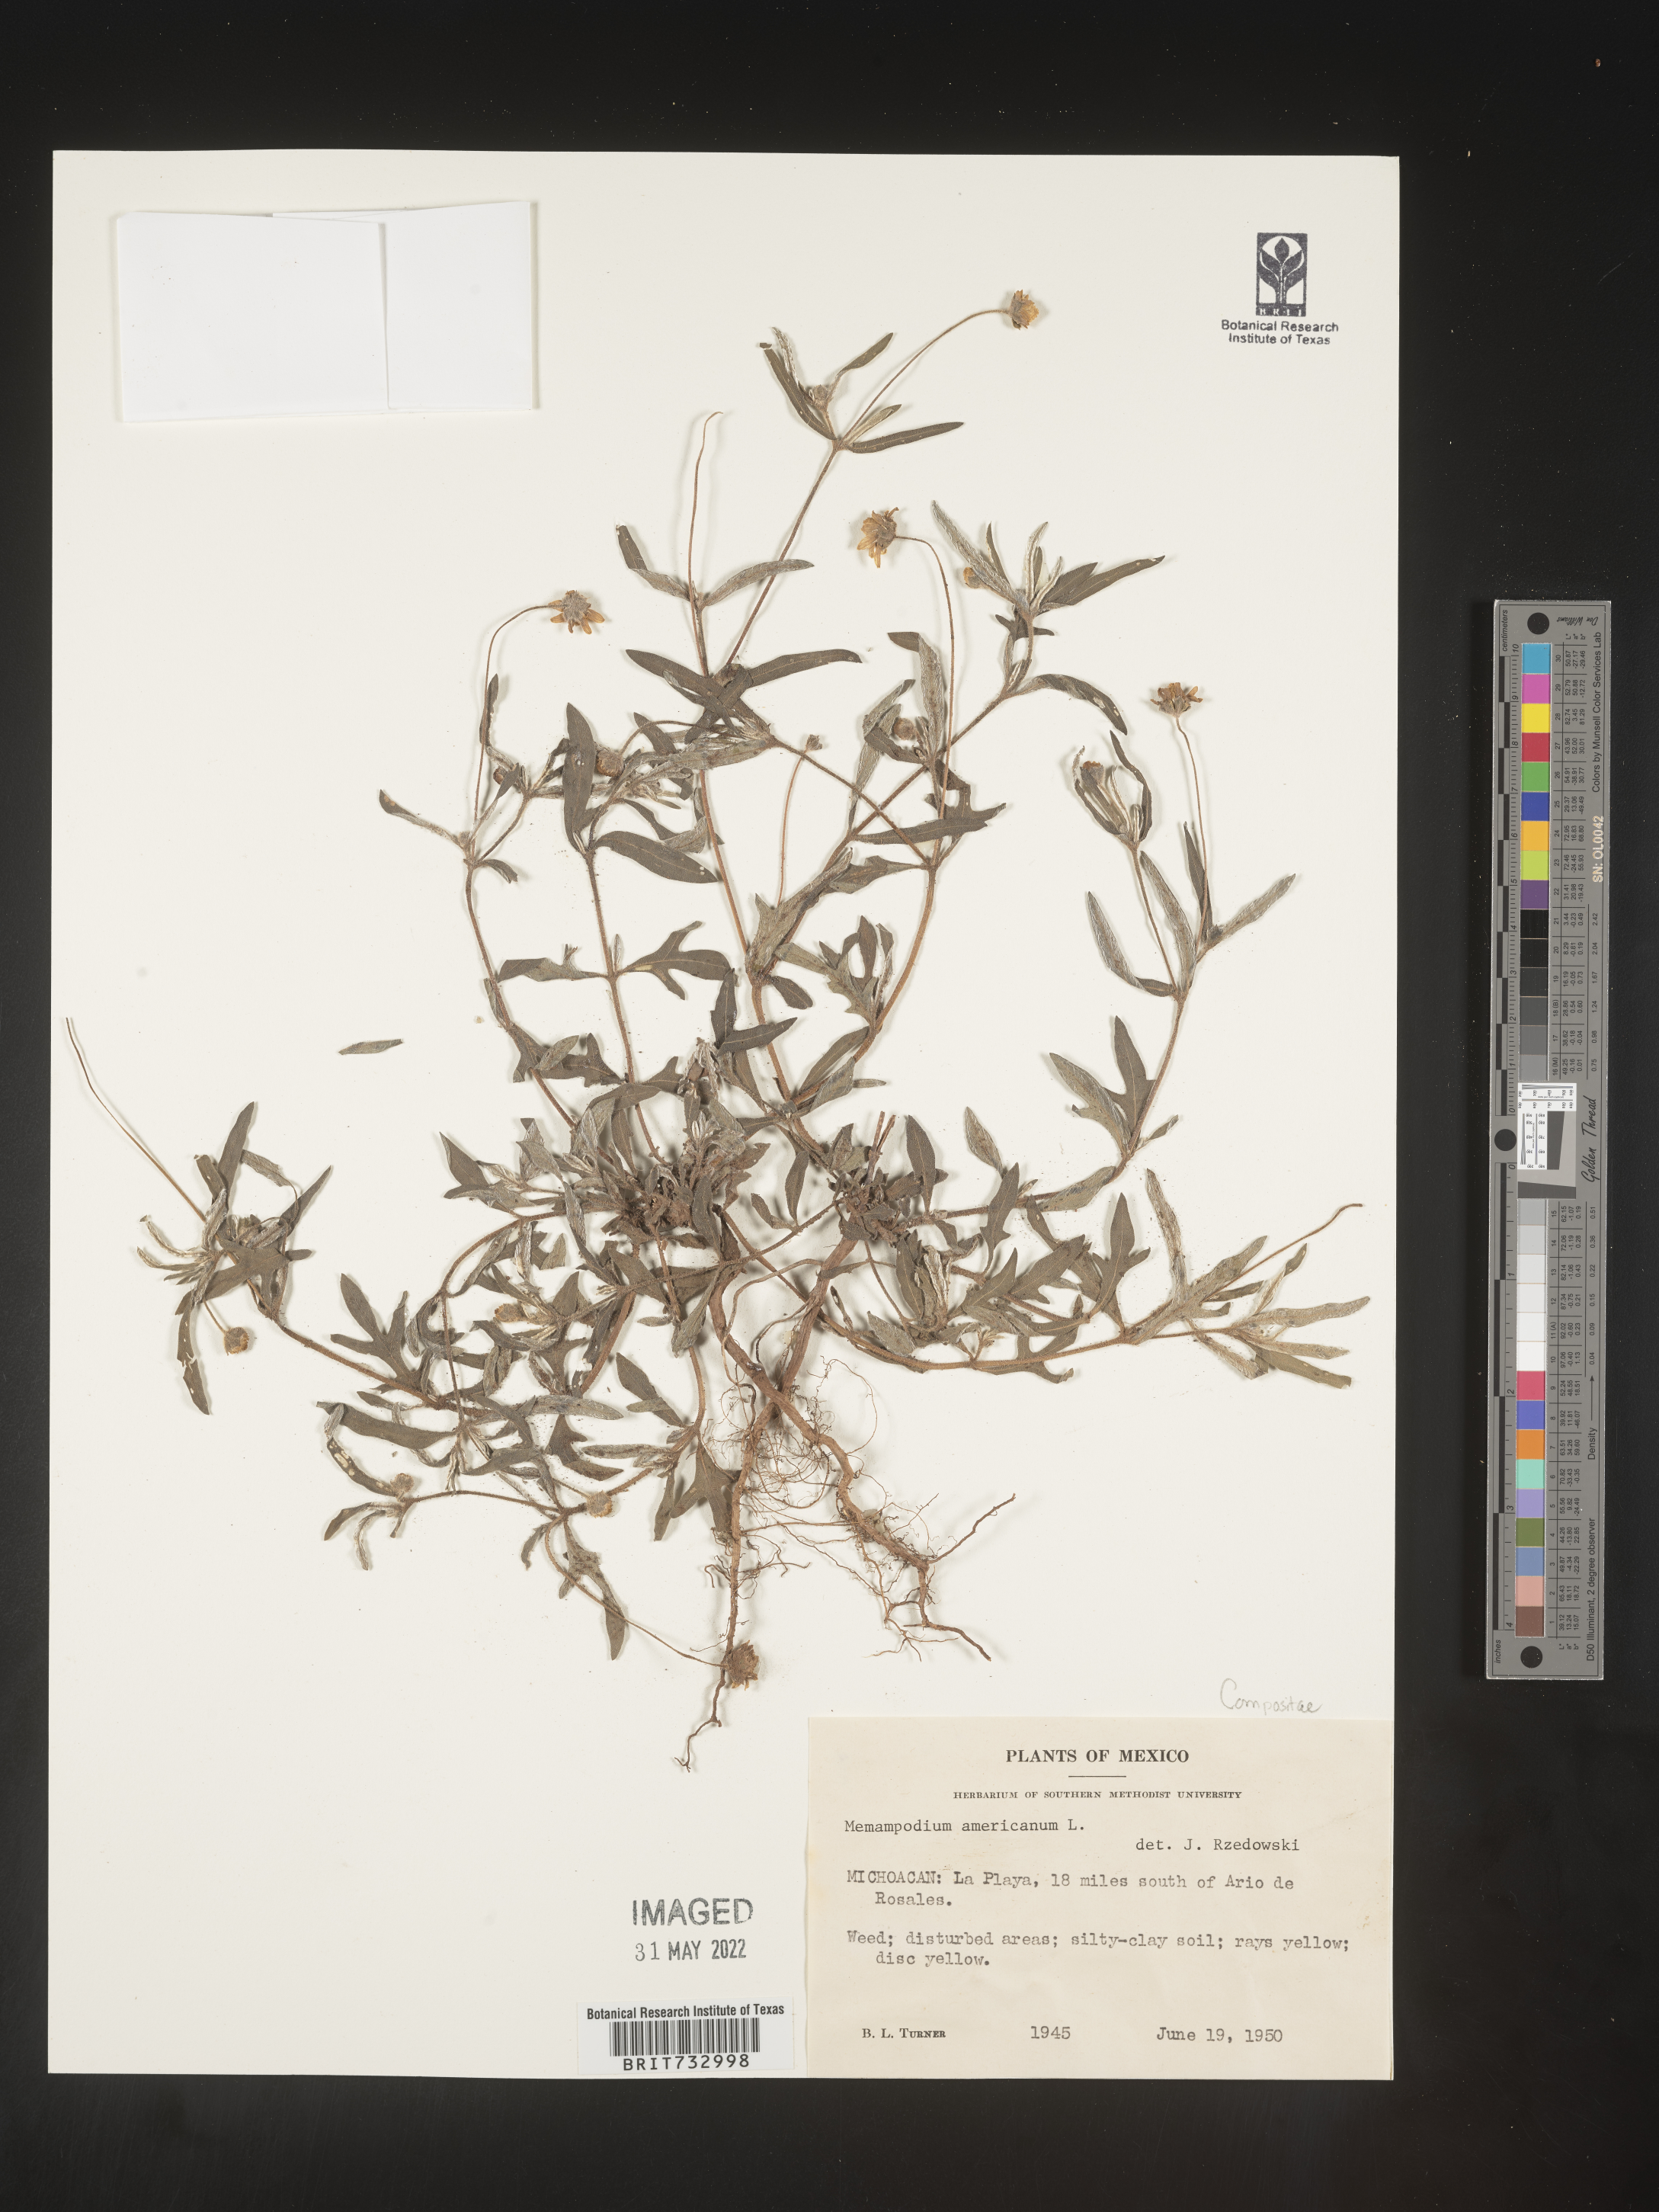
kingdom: Plantae
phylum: Tracheophyta
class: Magnoliopsida
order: Asterales
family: Asteraceae
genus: Melampodium
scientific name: Melampodium
